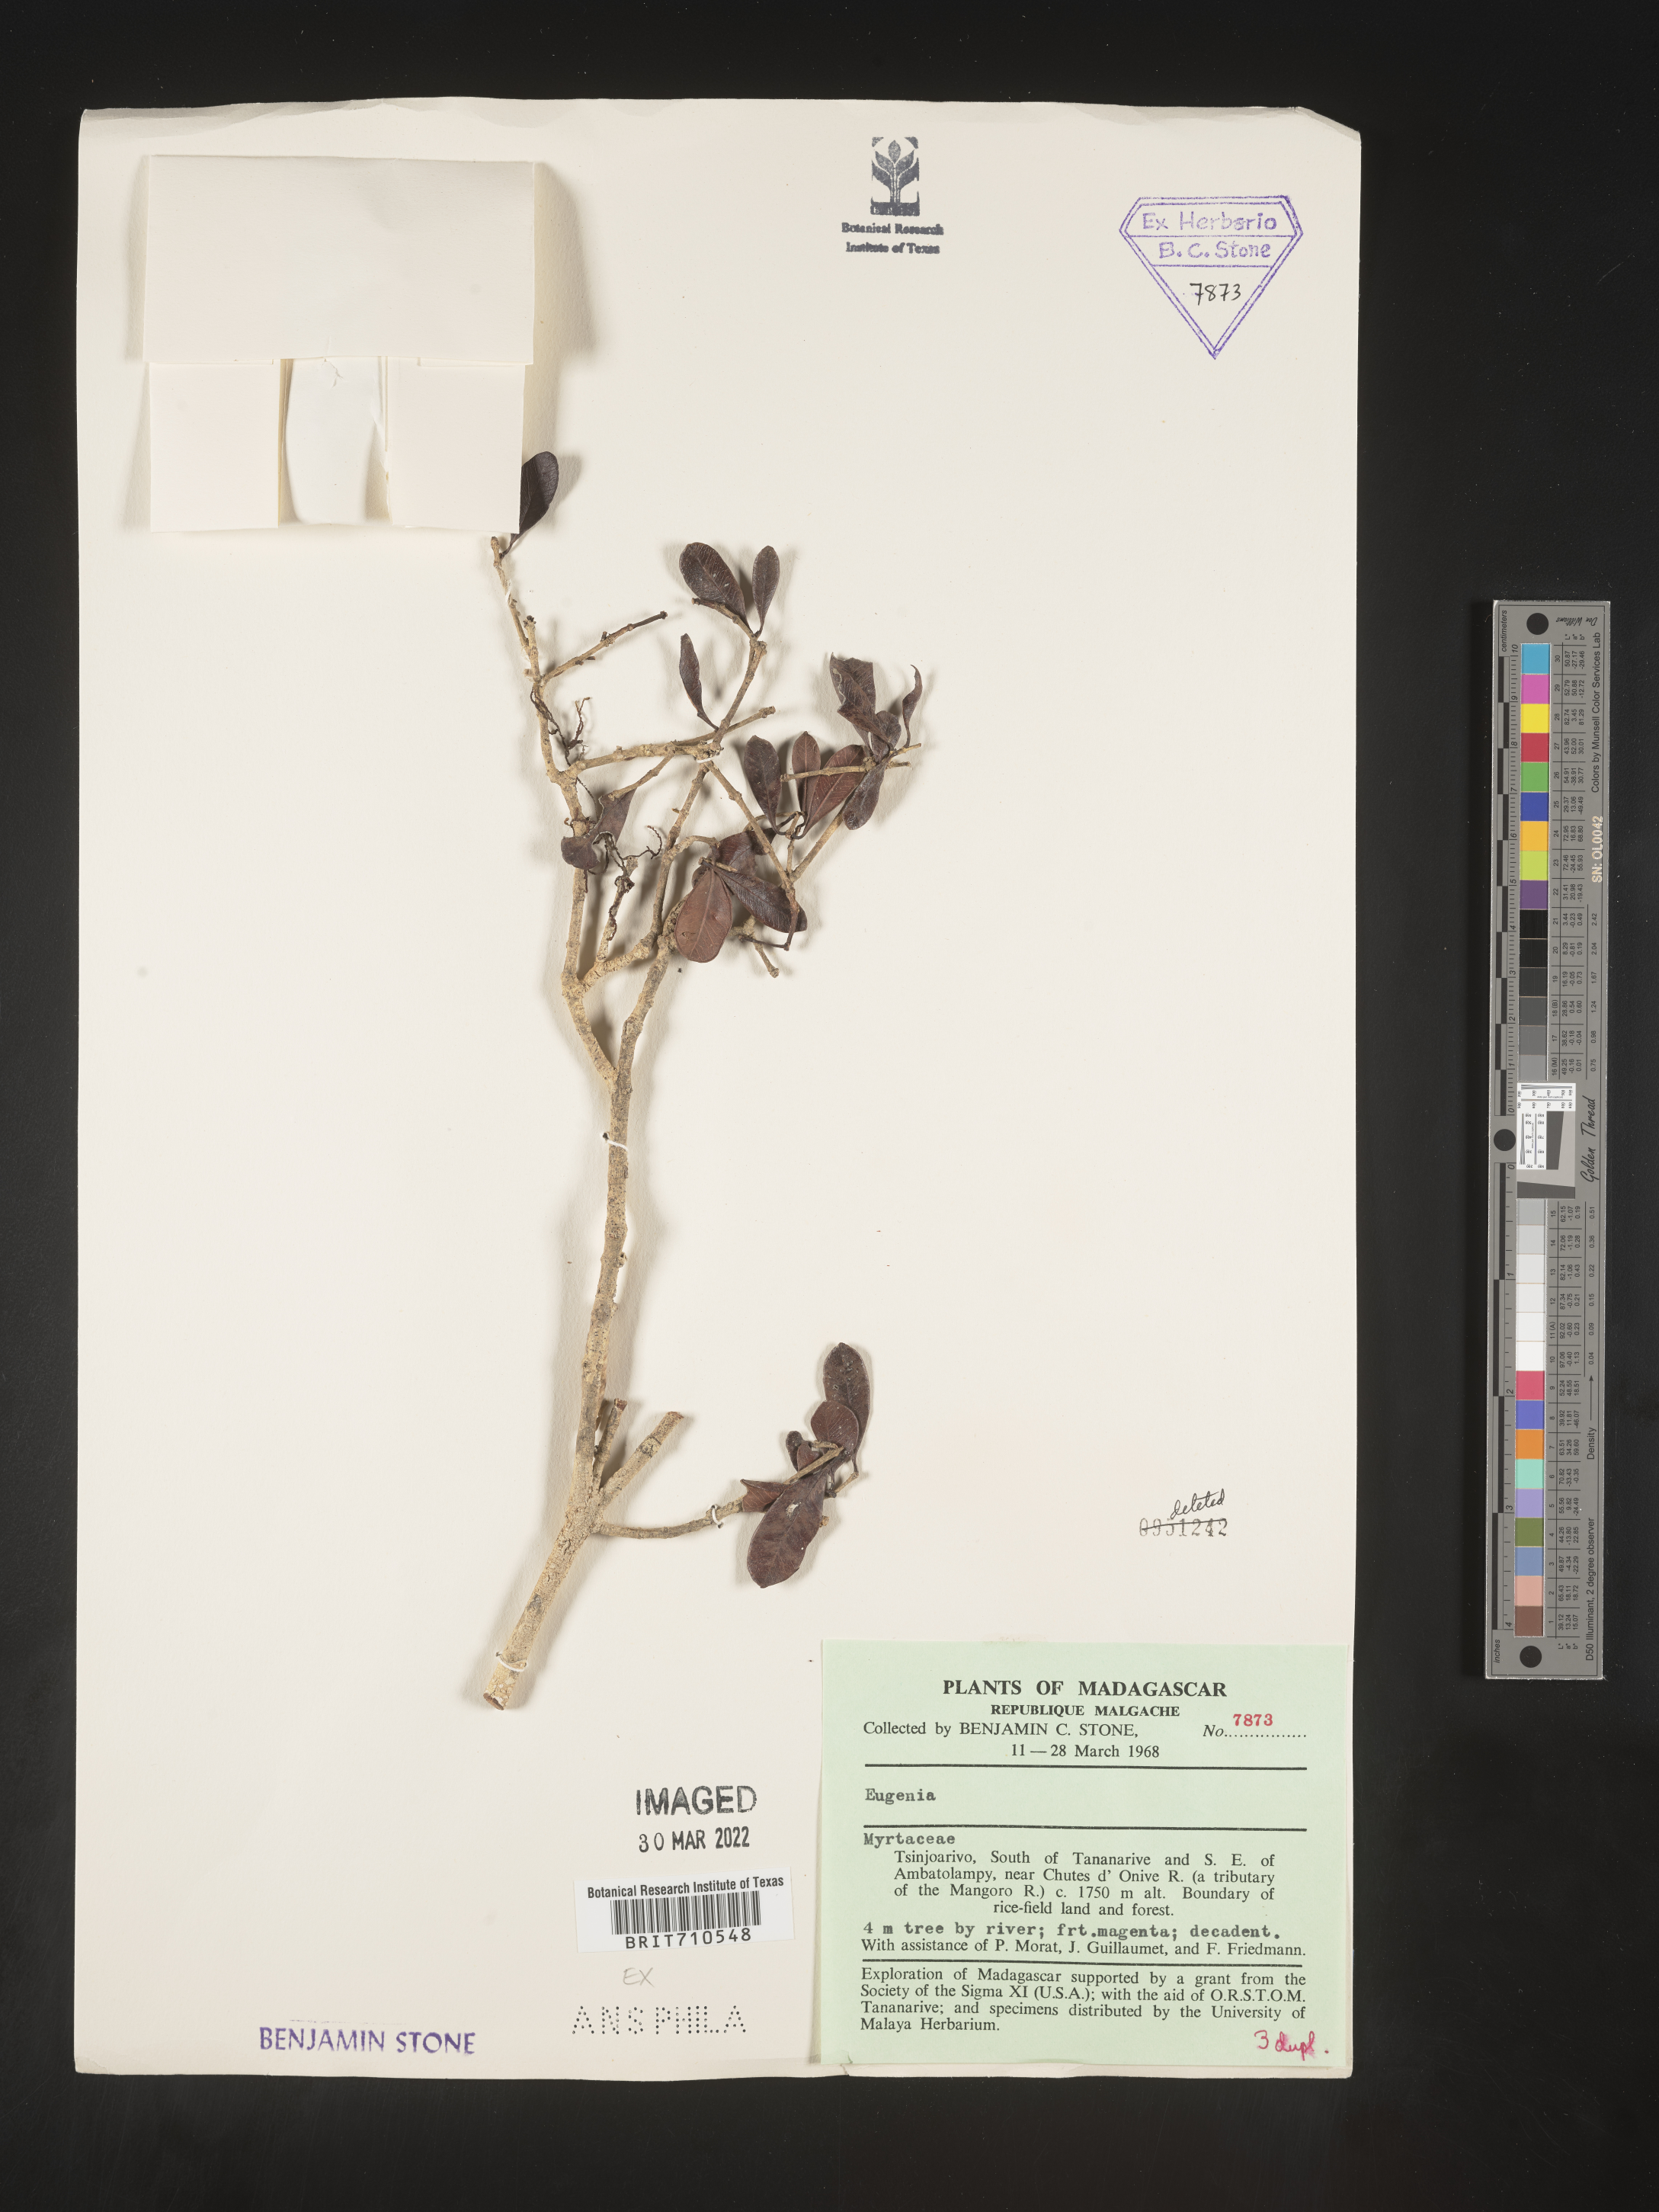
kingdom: Plantae
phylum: Tracheophyta
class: Magnoliopsida
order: Myrtales
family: Myrtaceae
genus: Eugenia
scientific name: Eugenia
